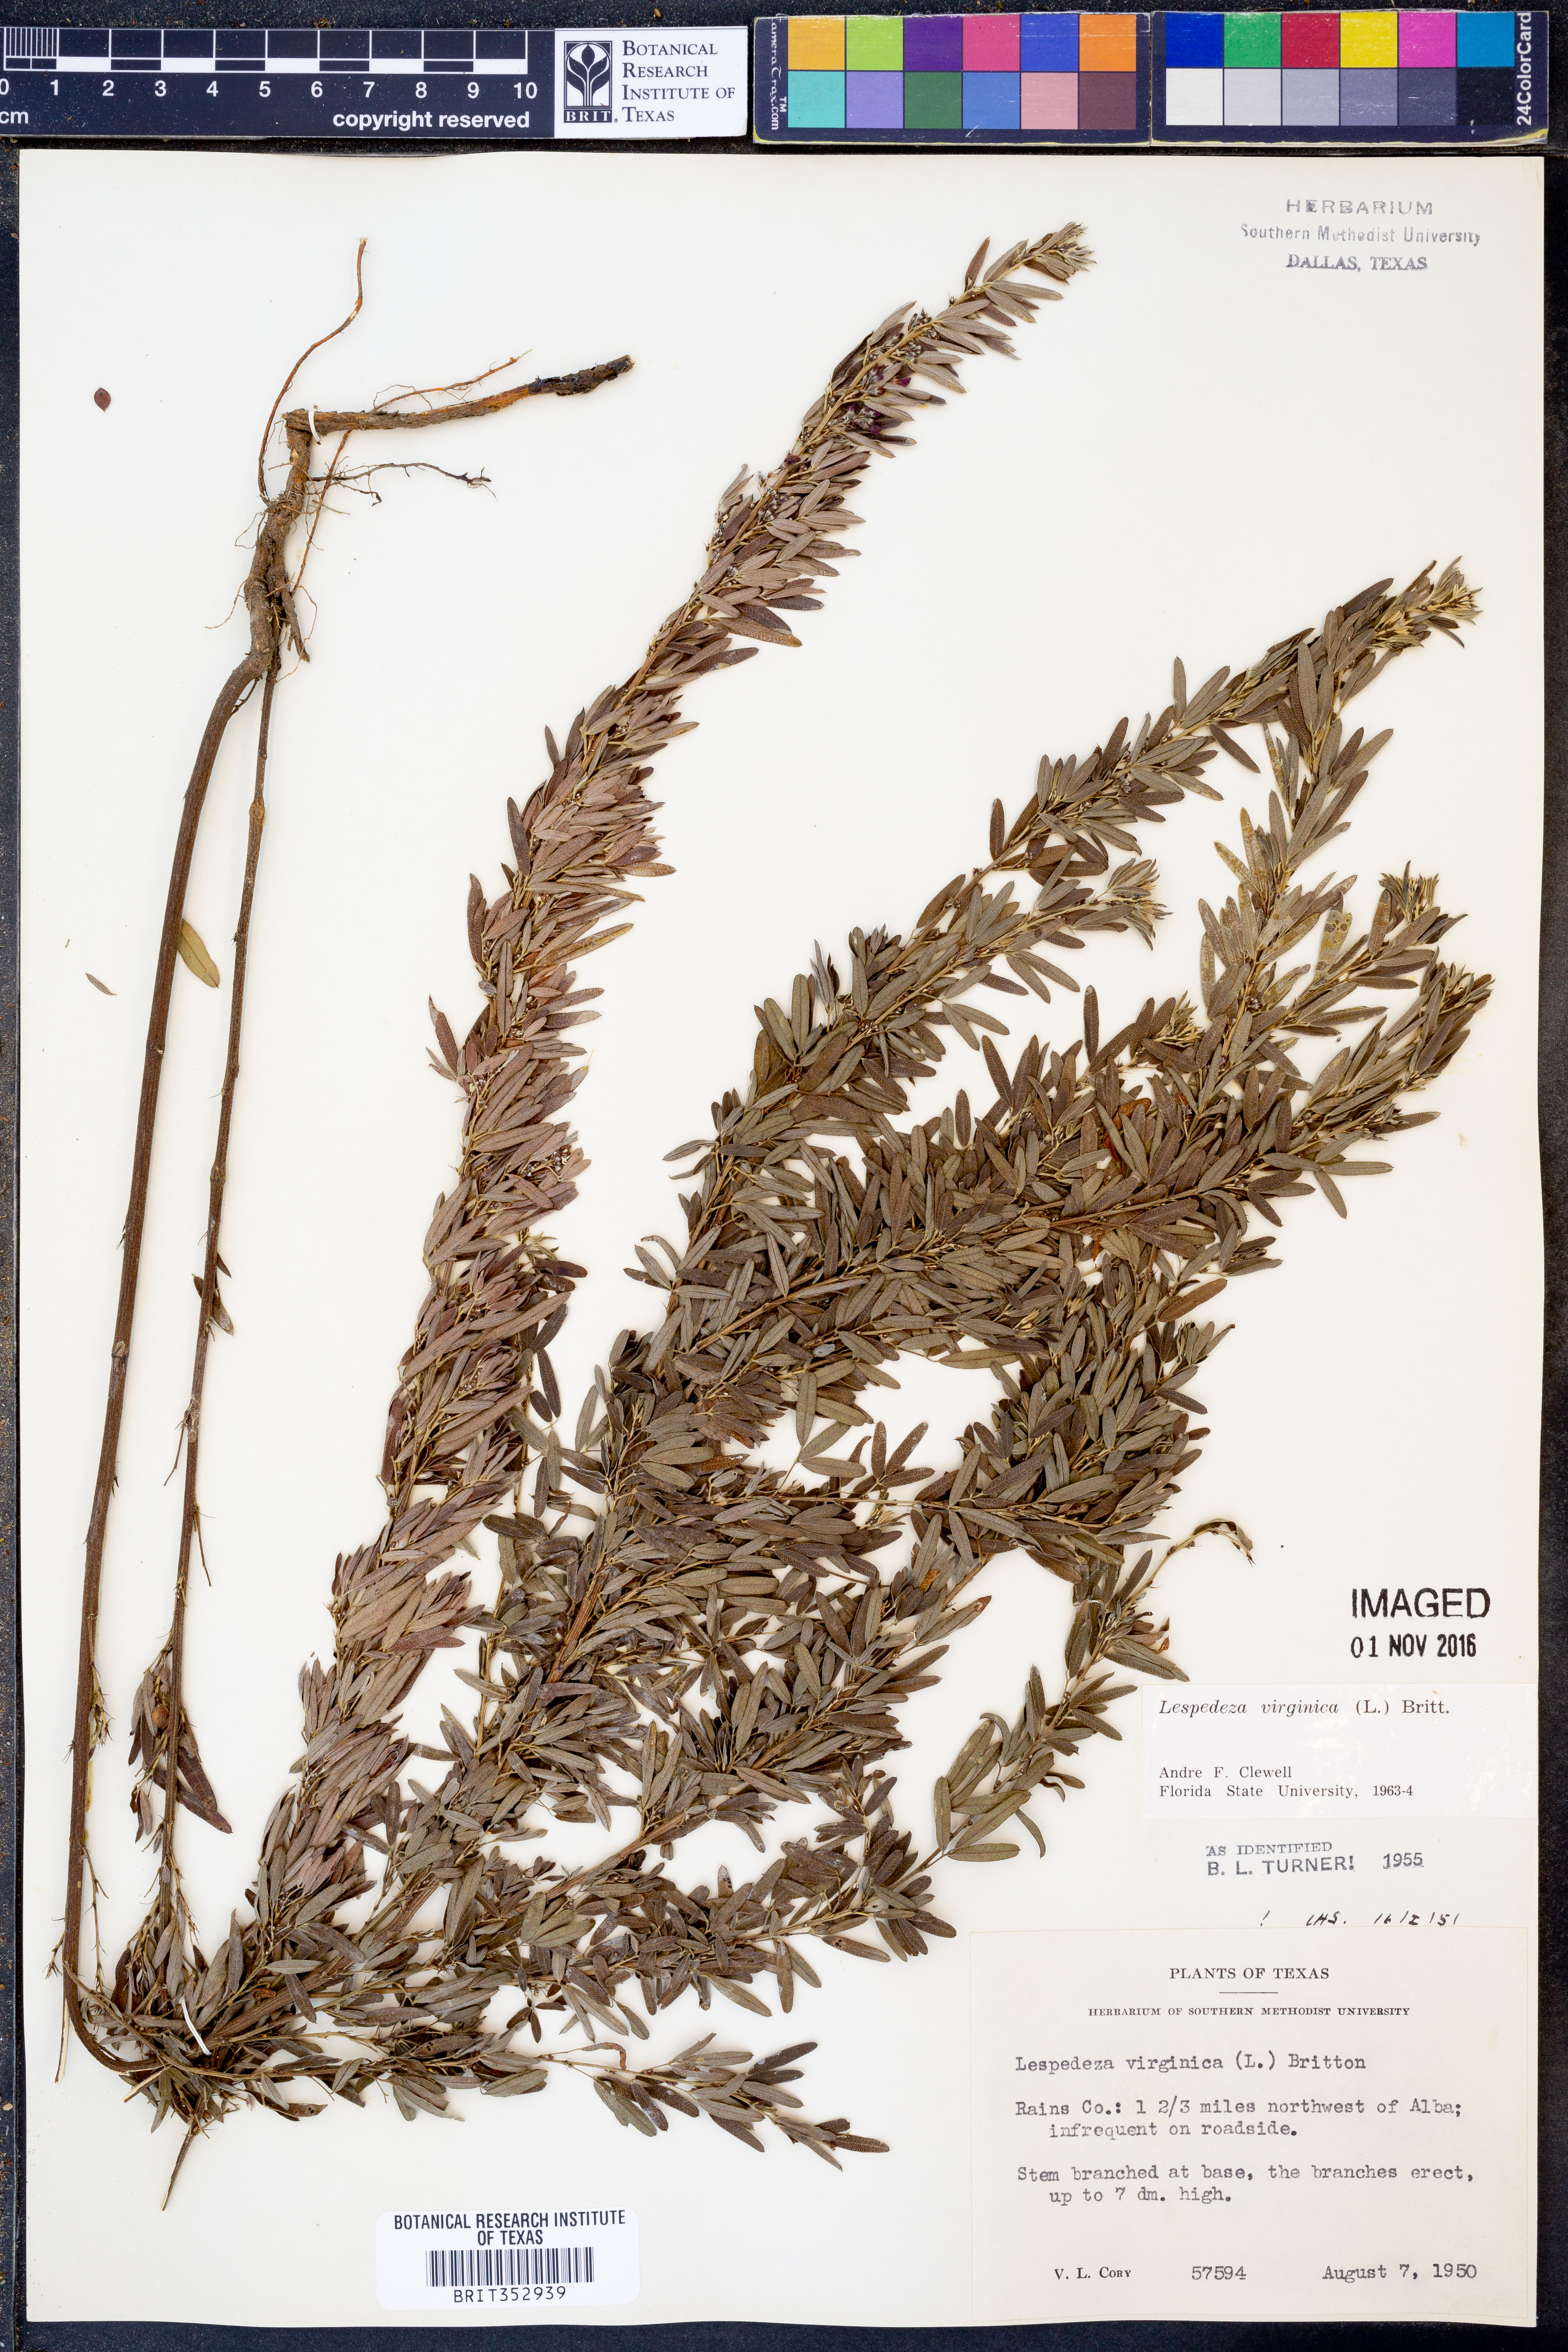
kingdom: Plantae
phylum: Tracheophyta
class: Magnoliopsida
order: Fabales
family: Fabaceae
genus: Lespedeza
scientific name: Lespedeza virginica
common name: Slender bush-clover
